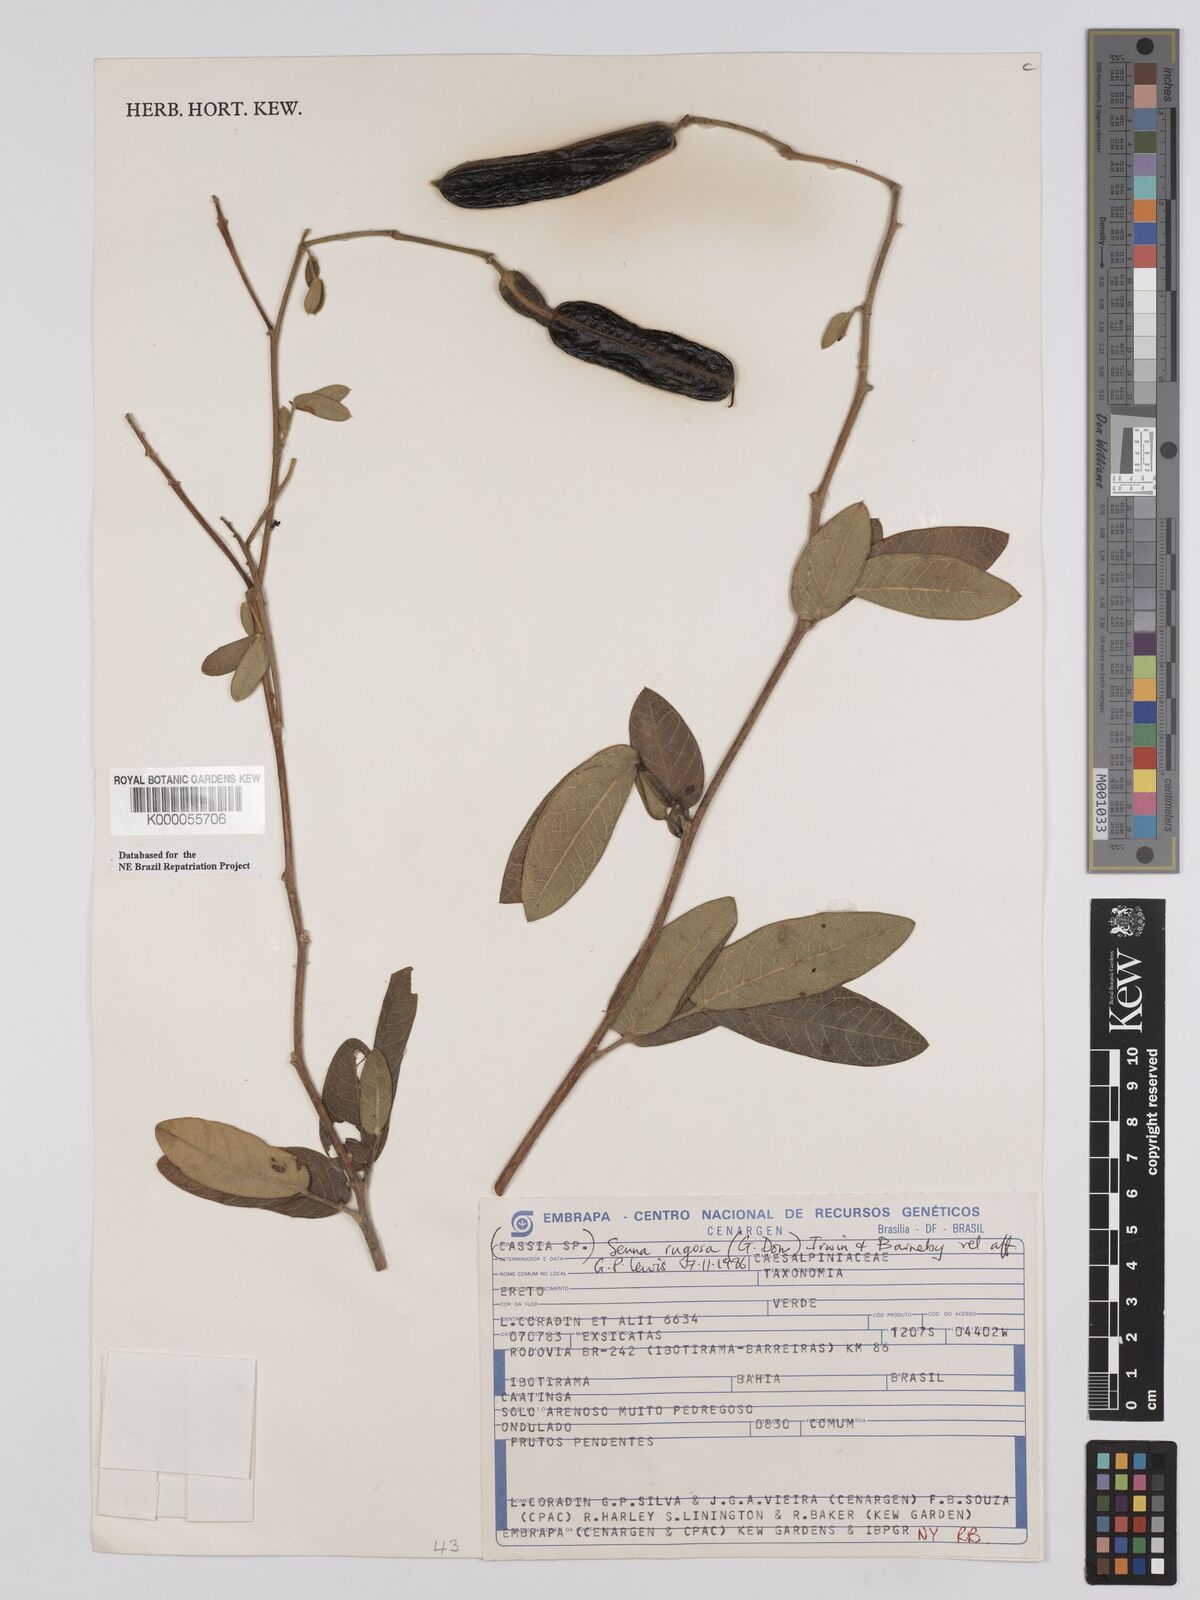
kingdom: Plantae
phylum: Tracheophyta
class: Magnoliopsida
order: Fabales
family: Fabaceae
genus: Senna
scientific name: Senna rugosa
